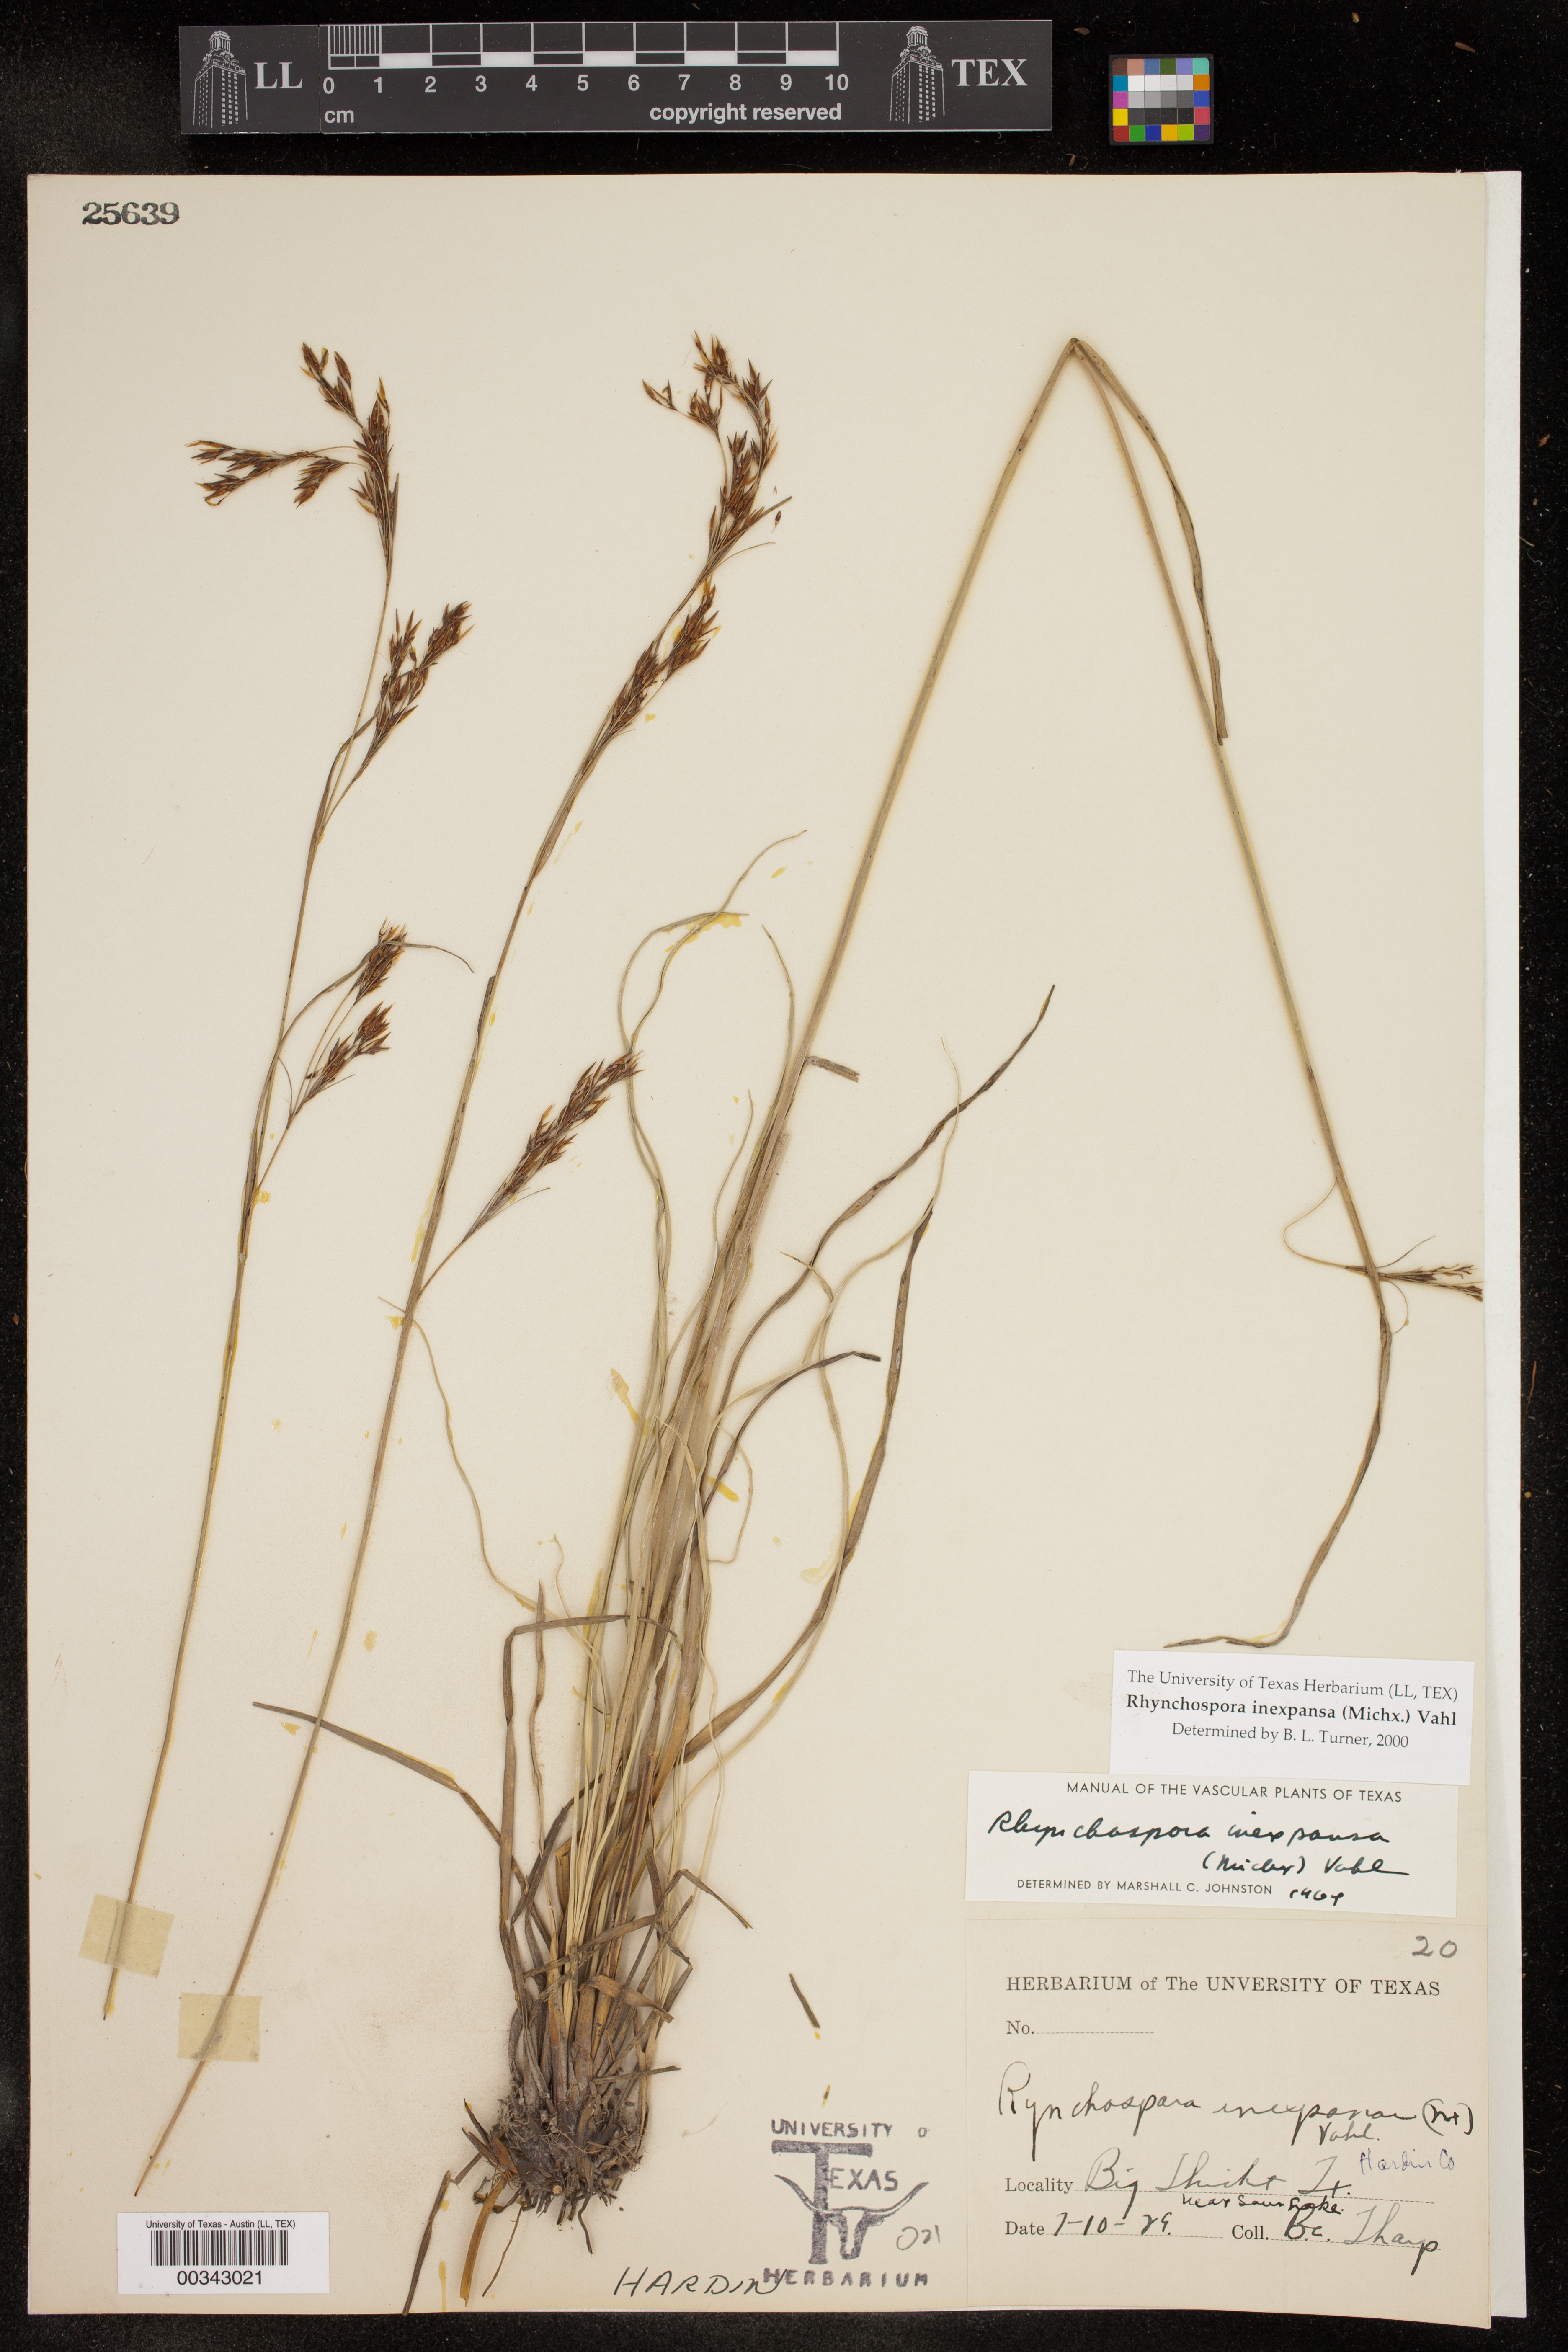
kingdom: Plantae
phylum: Tracheophyta
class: Liliopsida
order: Poales
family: Cyperaceae
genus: Rhynchospora
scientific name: Rhynchospora inexpansa
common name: Nodding beaksedge
